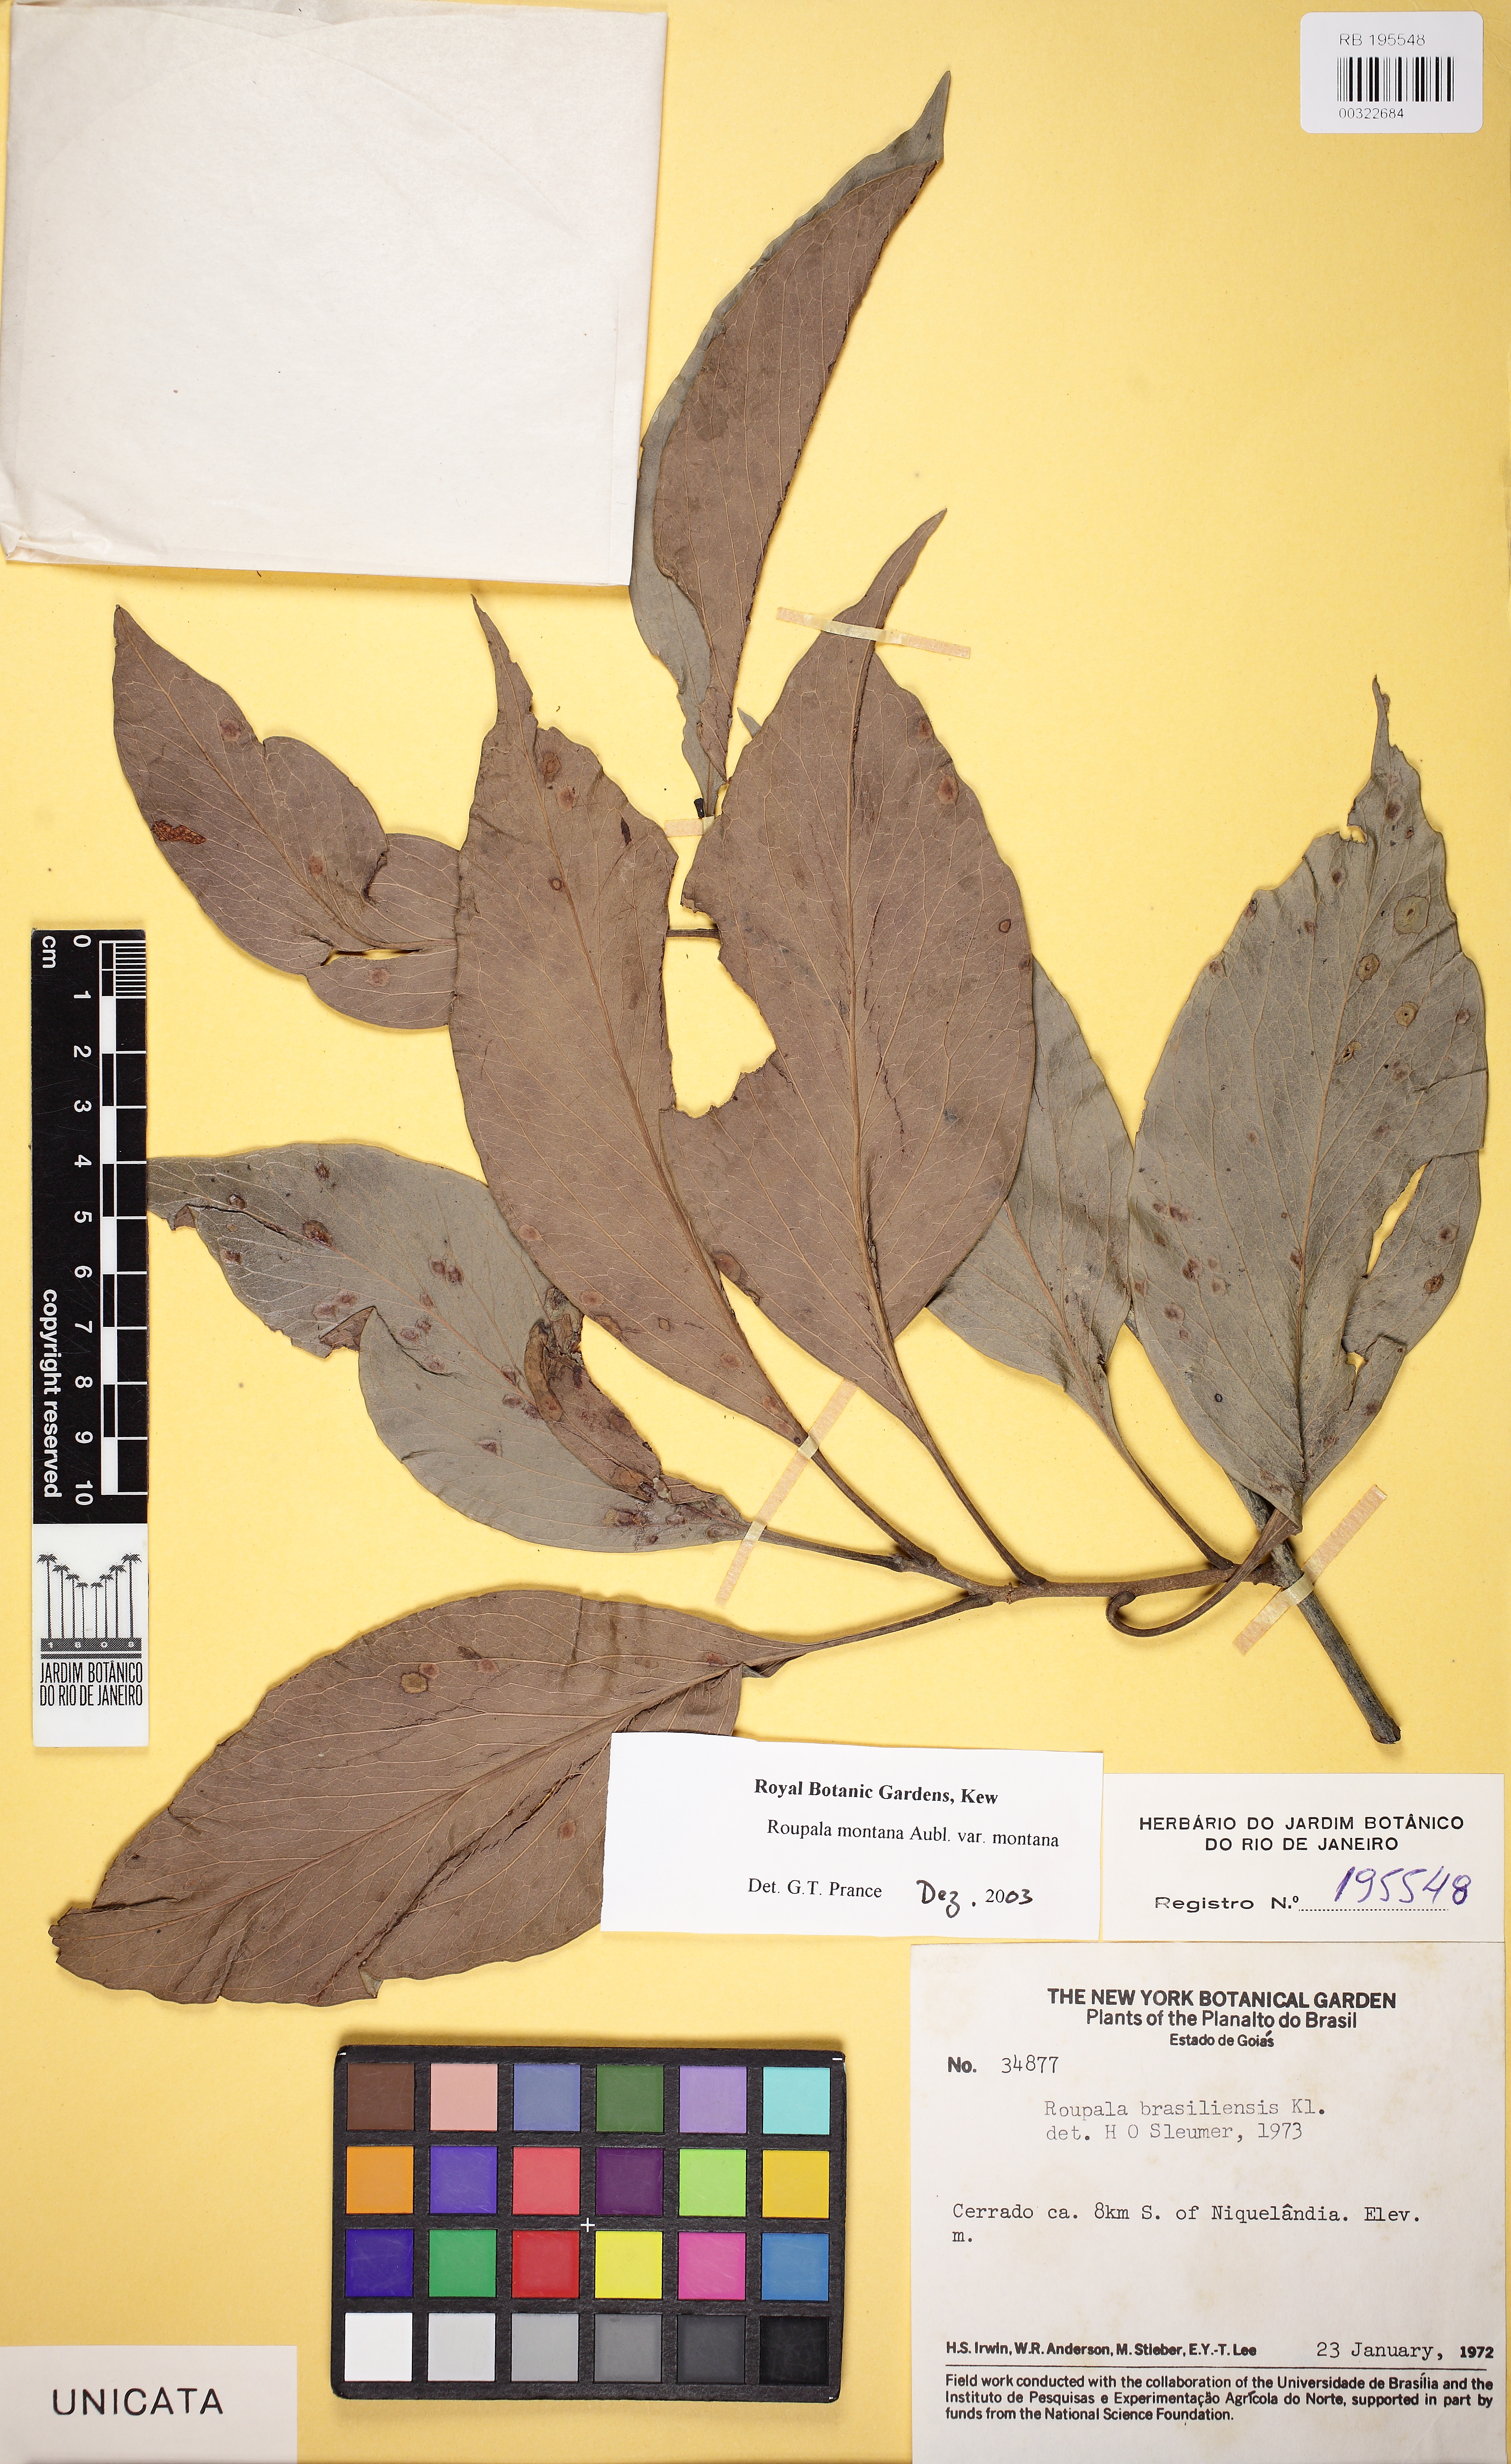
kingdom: Plantae
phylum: Tracheophyta
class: Magnoliopsida
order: Proteales
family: Proteaceae
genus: Roupala
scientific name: Roupala montana
